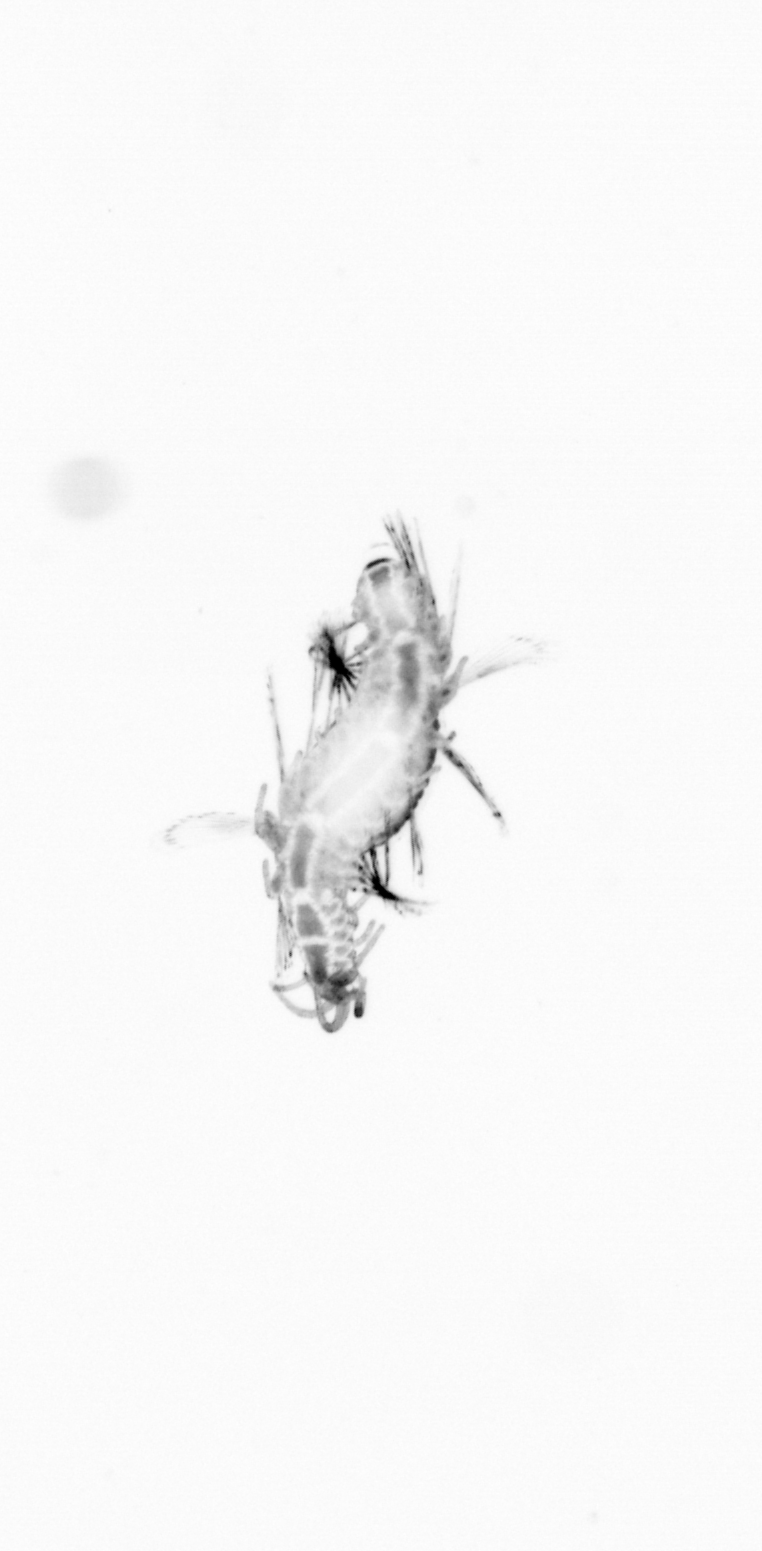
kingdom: Animalia
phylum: Annelida
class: Polychaeta
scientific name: Polychaeta
